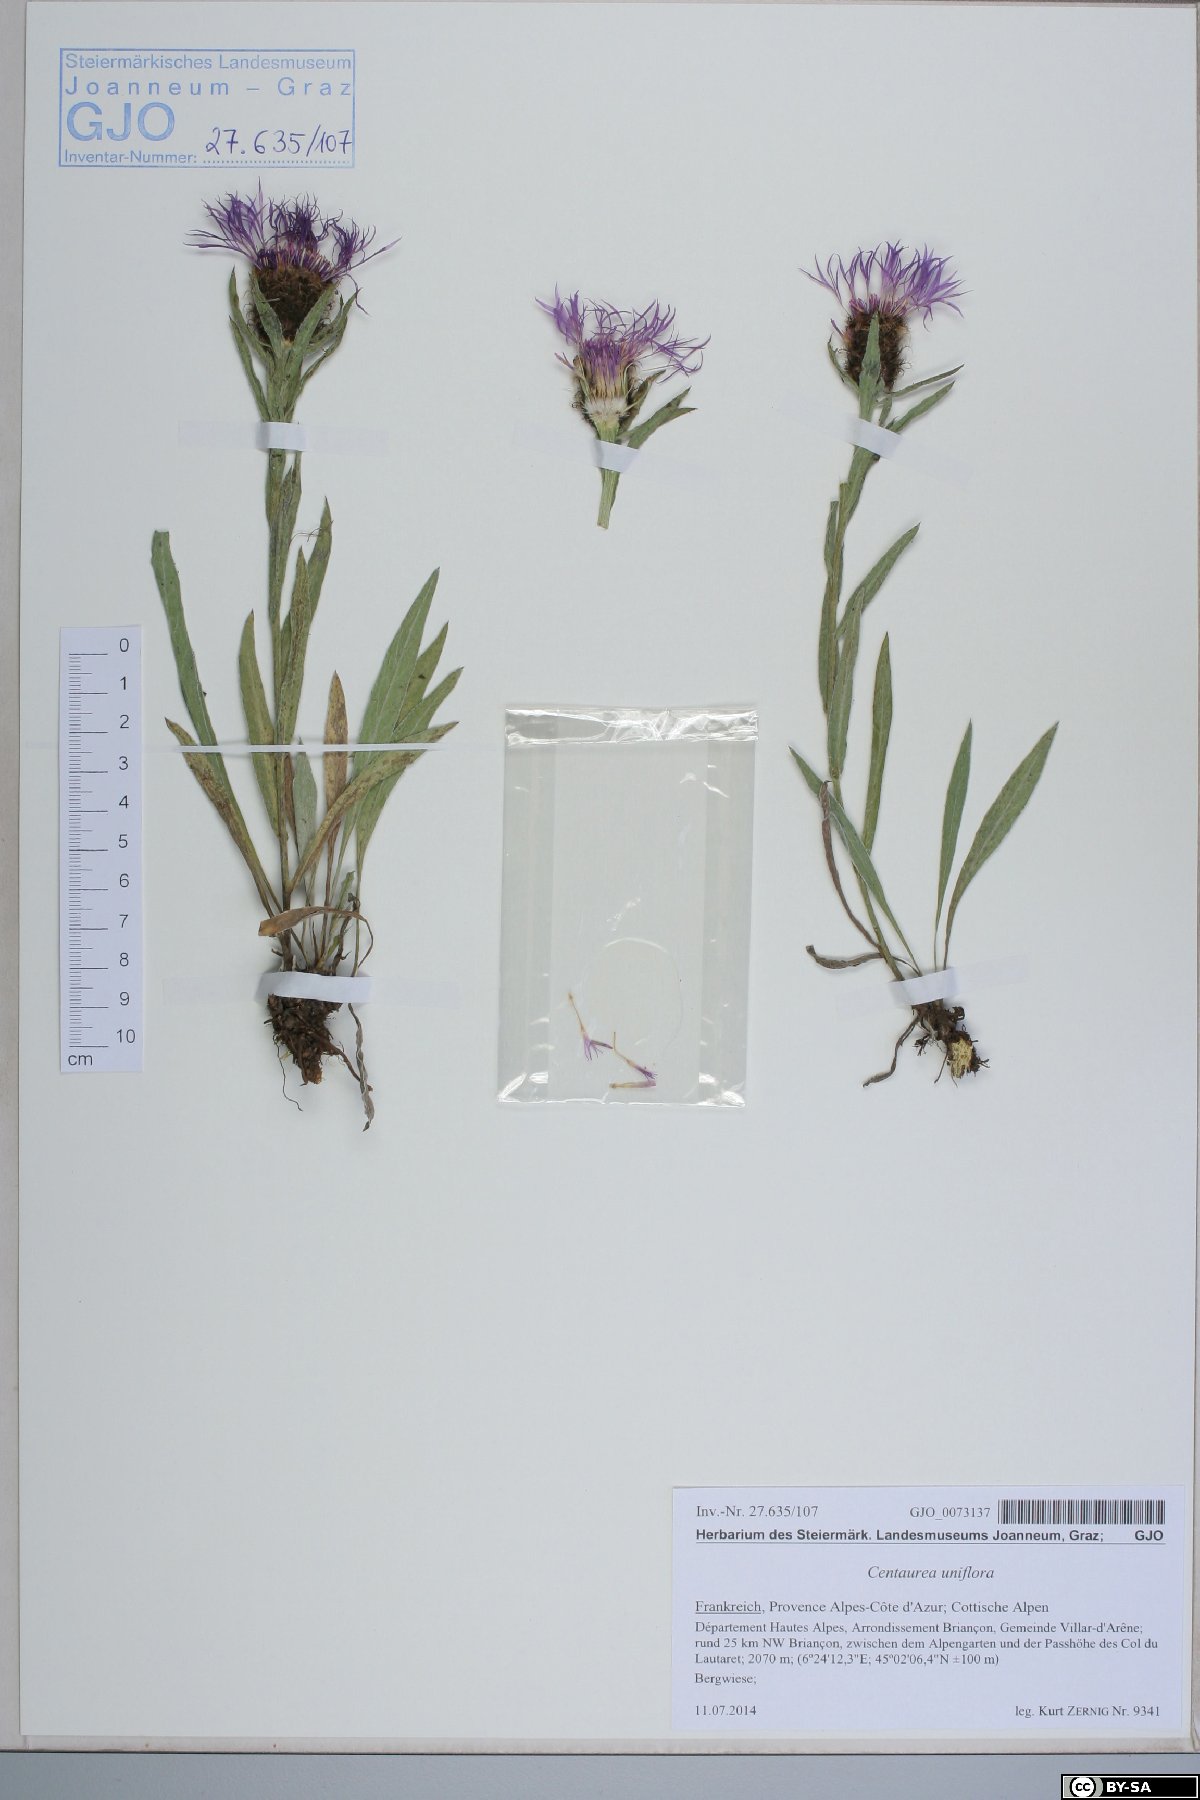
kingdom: Plantae
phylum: Tracheophyta
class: Magnoliopsida
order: Asterales
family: Asteraceae
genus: Centaurea
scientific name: Centaurea uniflora
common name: Singleflower knapweed
